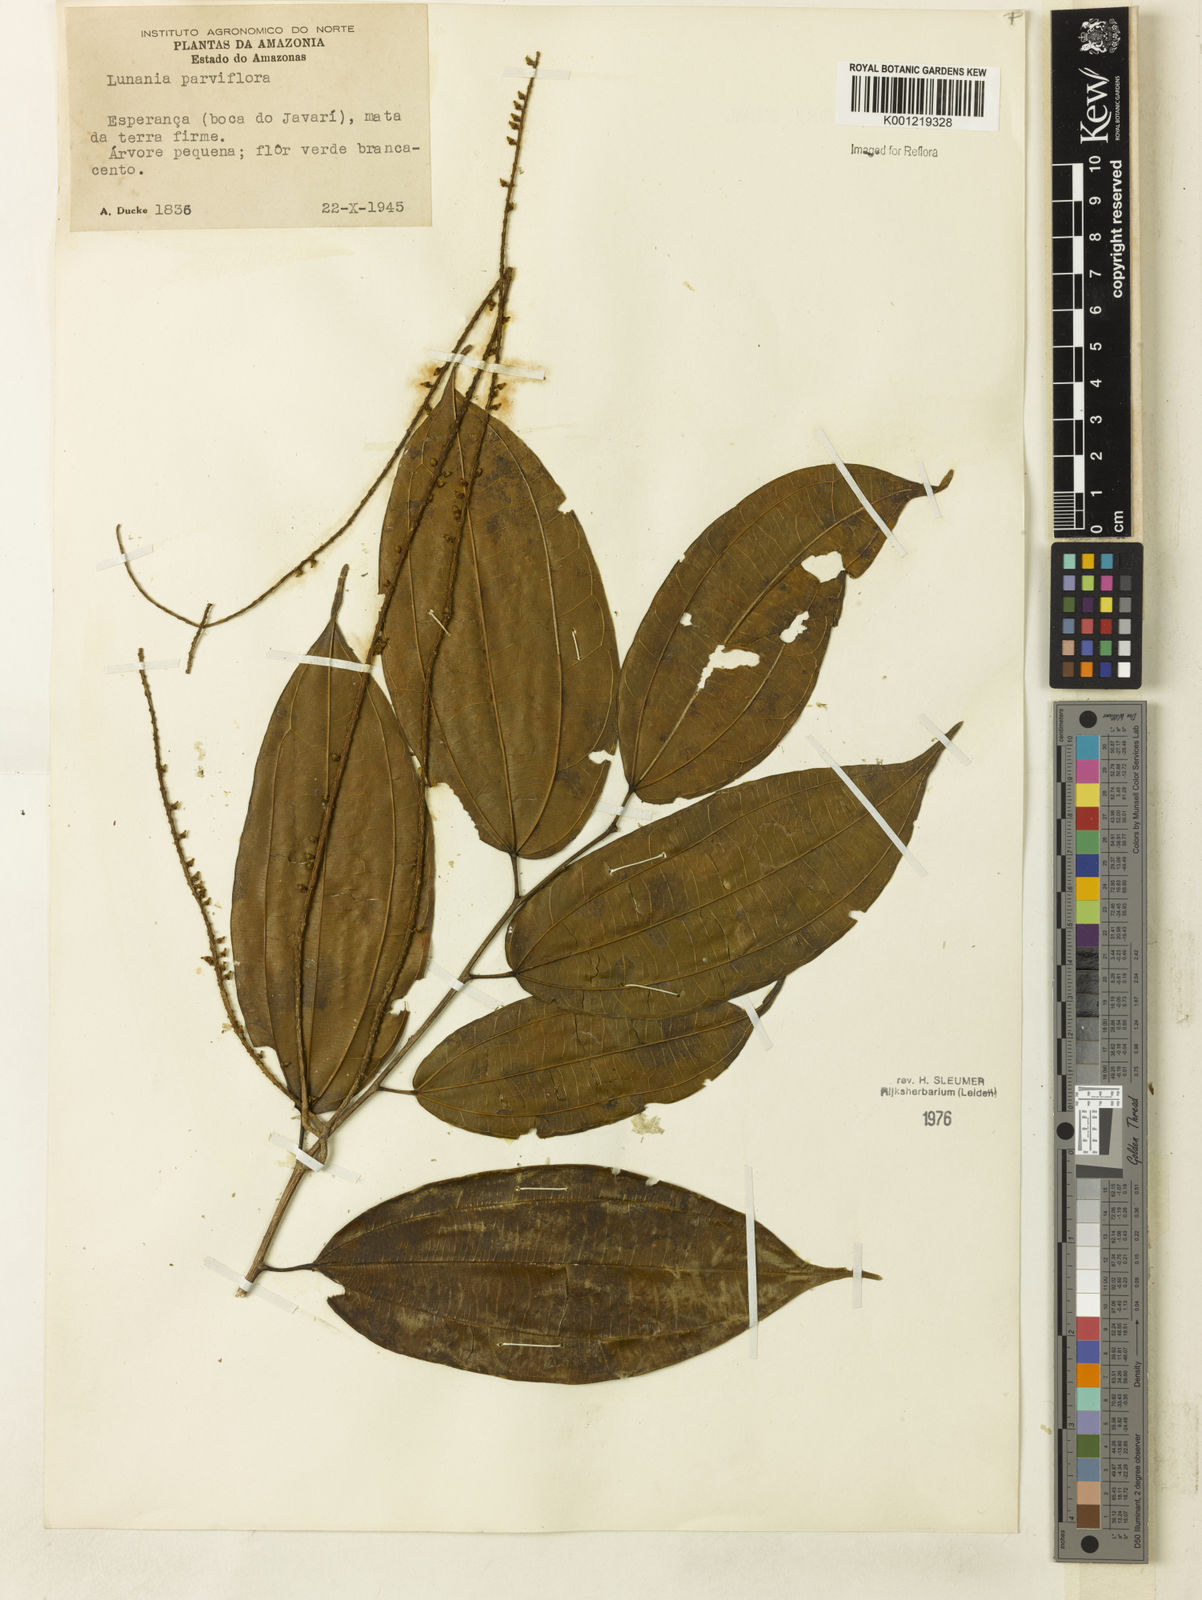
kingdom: Plantae
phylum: Tracheophyta
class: Magnoliopsida
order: Malpighiales
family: Salicaceae
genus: Lunania
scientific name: Lunania parviflora
